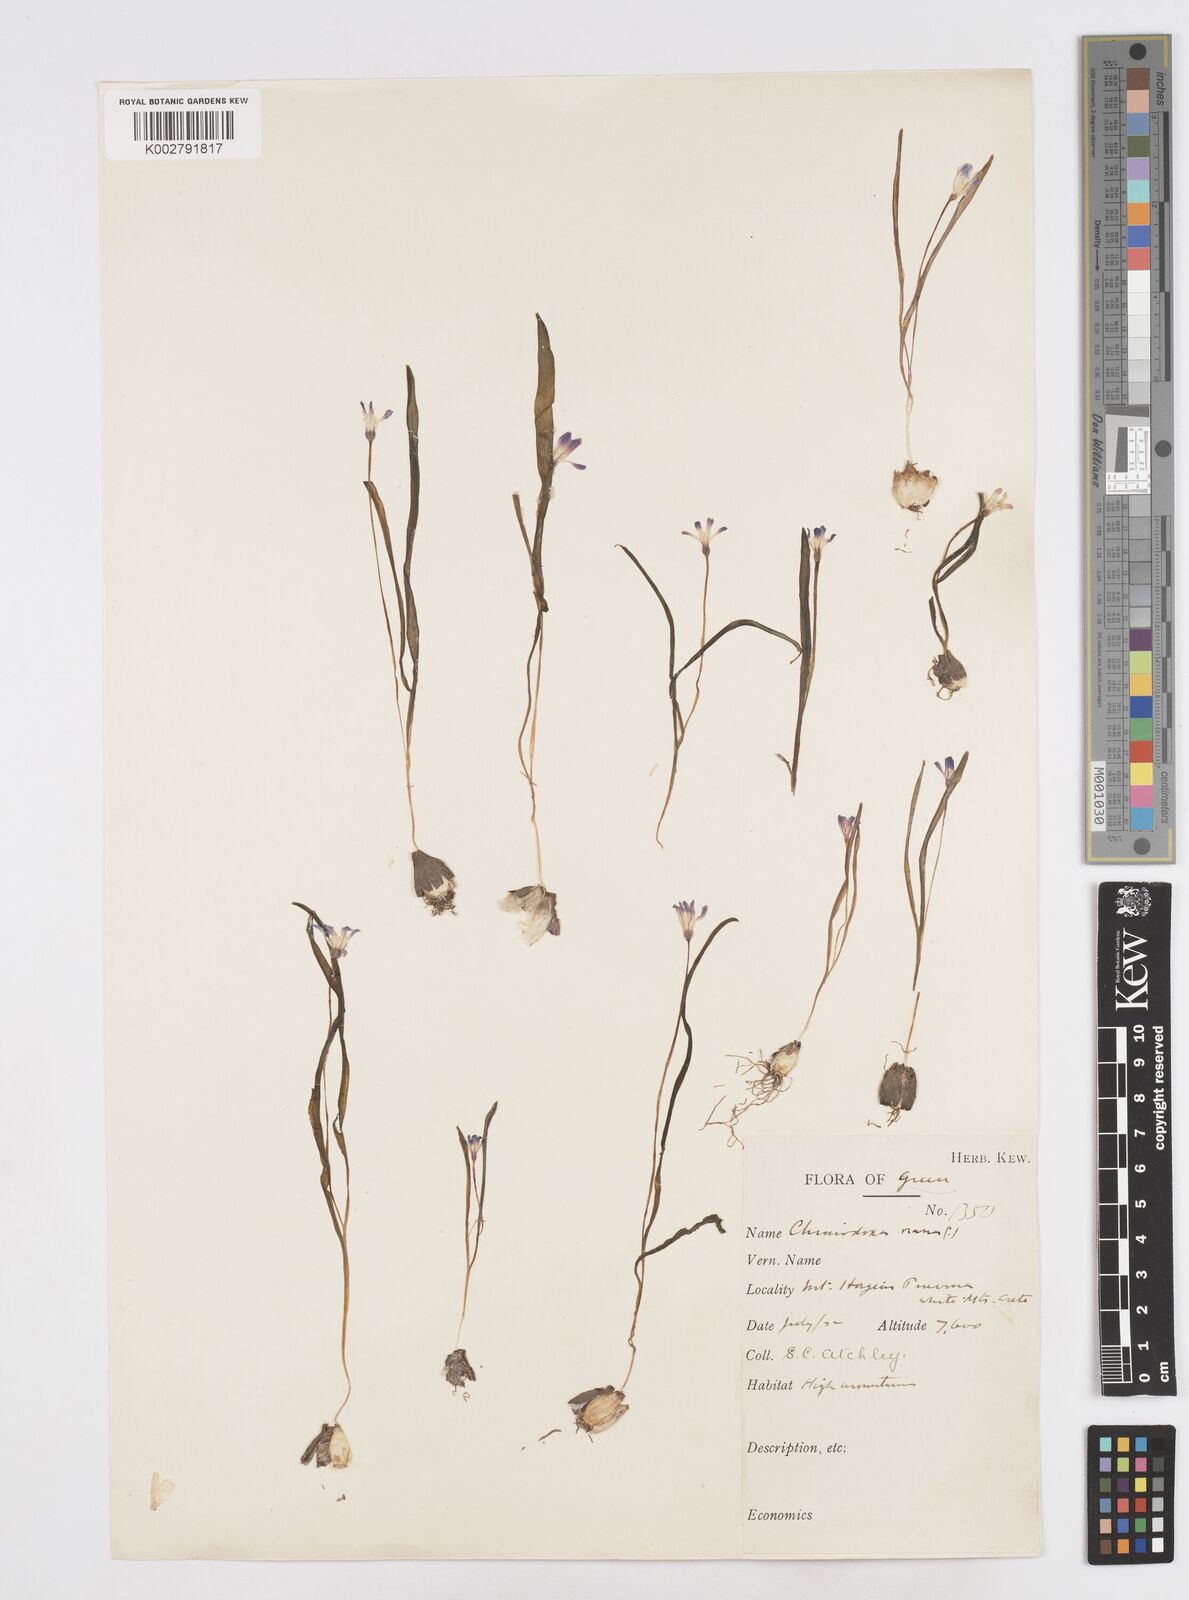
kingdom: Plantae
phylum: Tracheophyta
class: Liliopsida
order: Asparagales
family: Asparagaceae
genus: Scilla
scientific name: Scilla cretica
